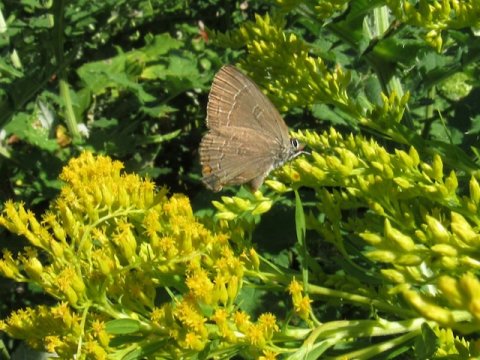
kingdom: Animalia
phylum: Arthropoda
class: Insecta
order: Lepidoptera
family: Lycaenidae
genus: Satyrium
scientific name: Satyrium calanus
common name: Banded Hairstreak
